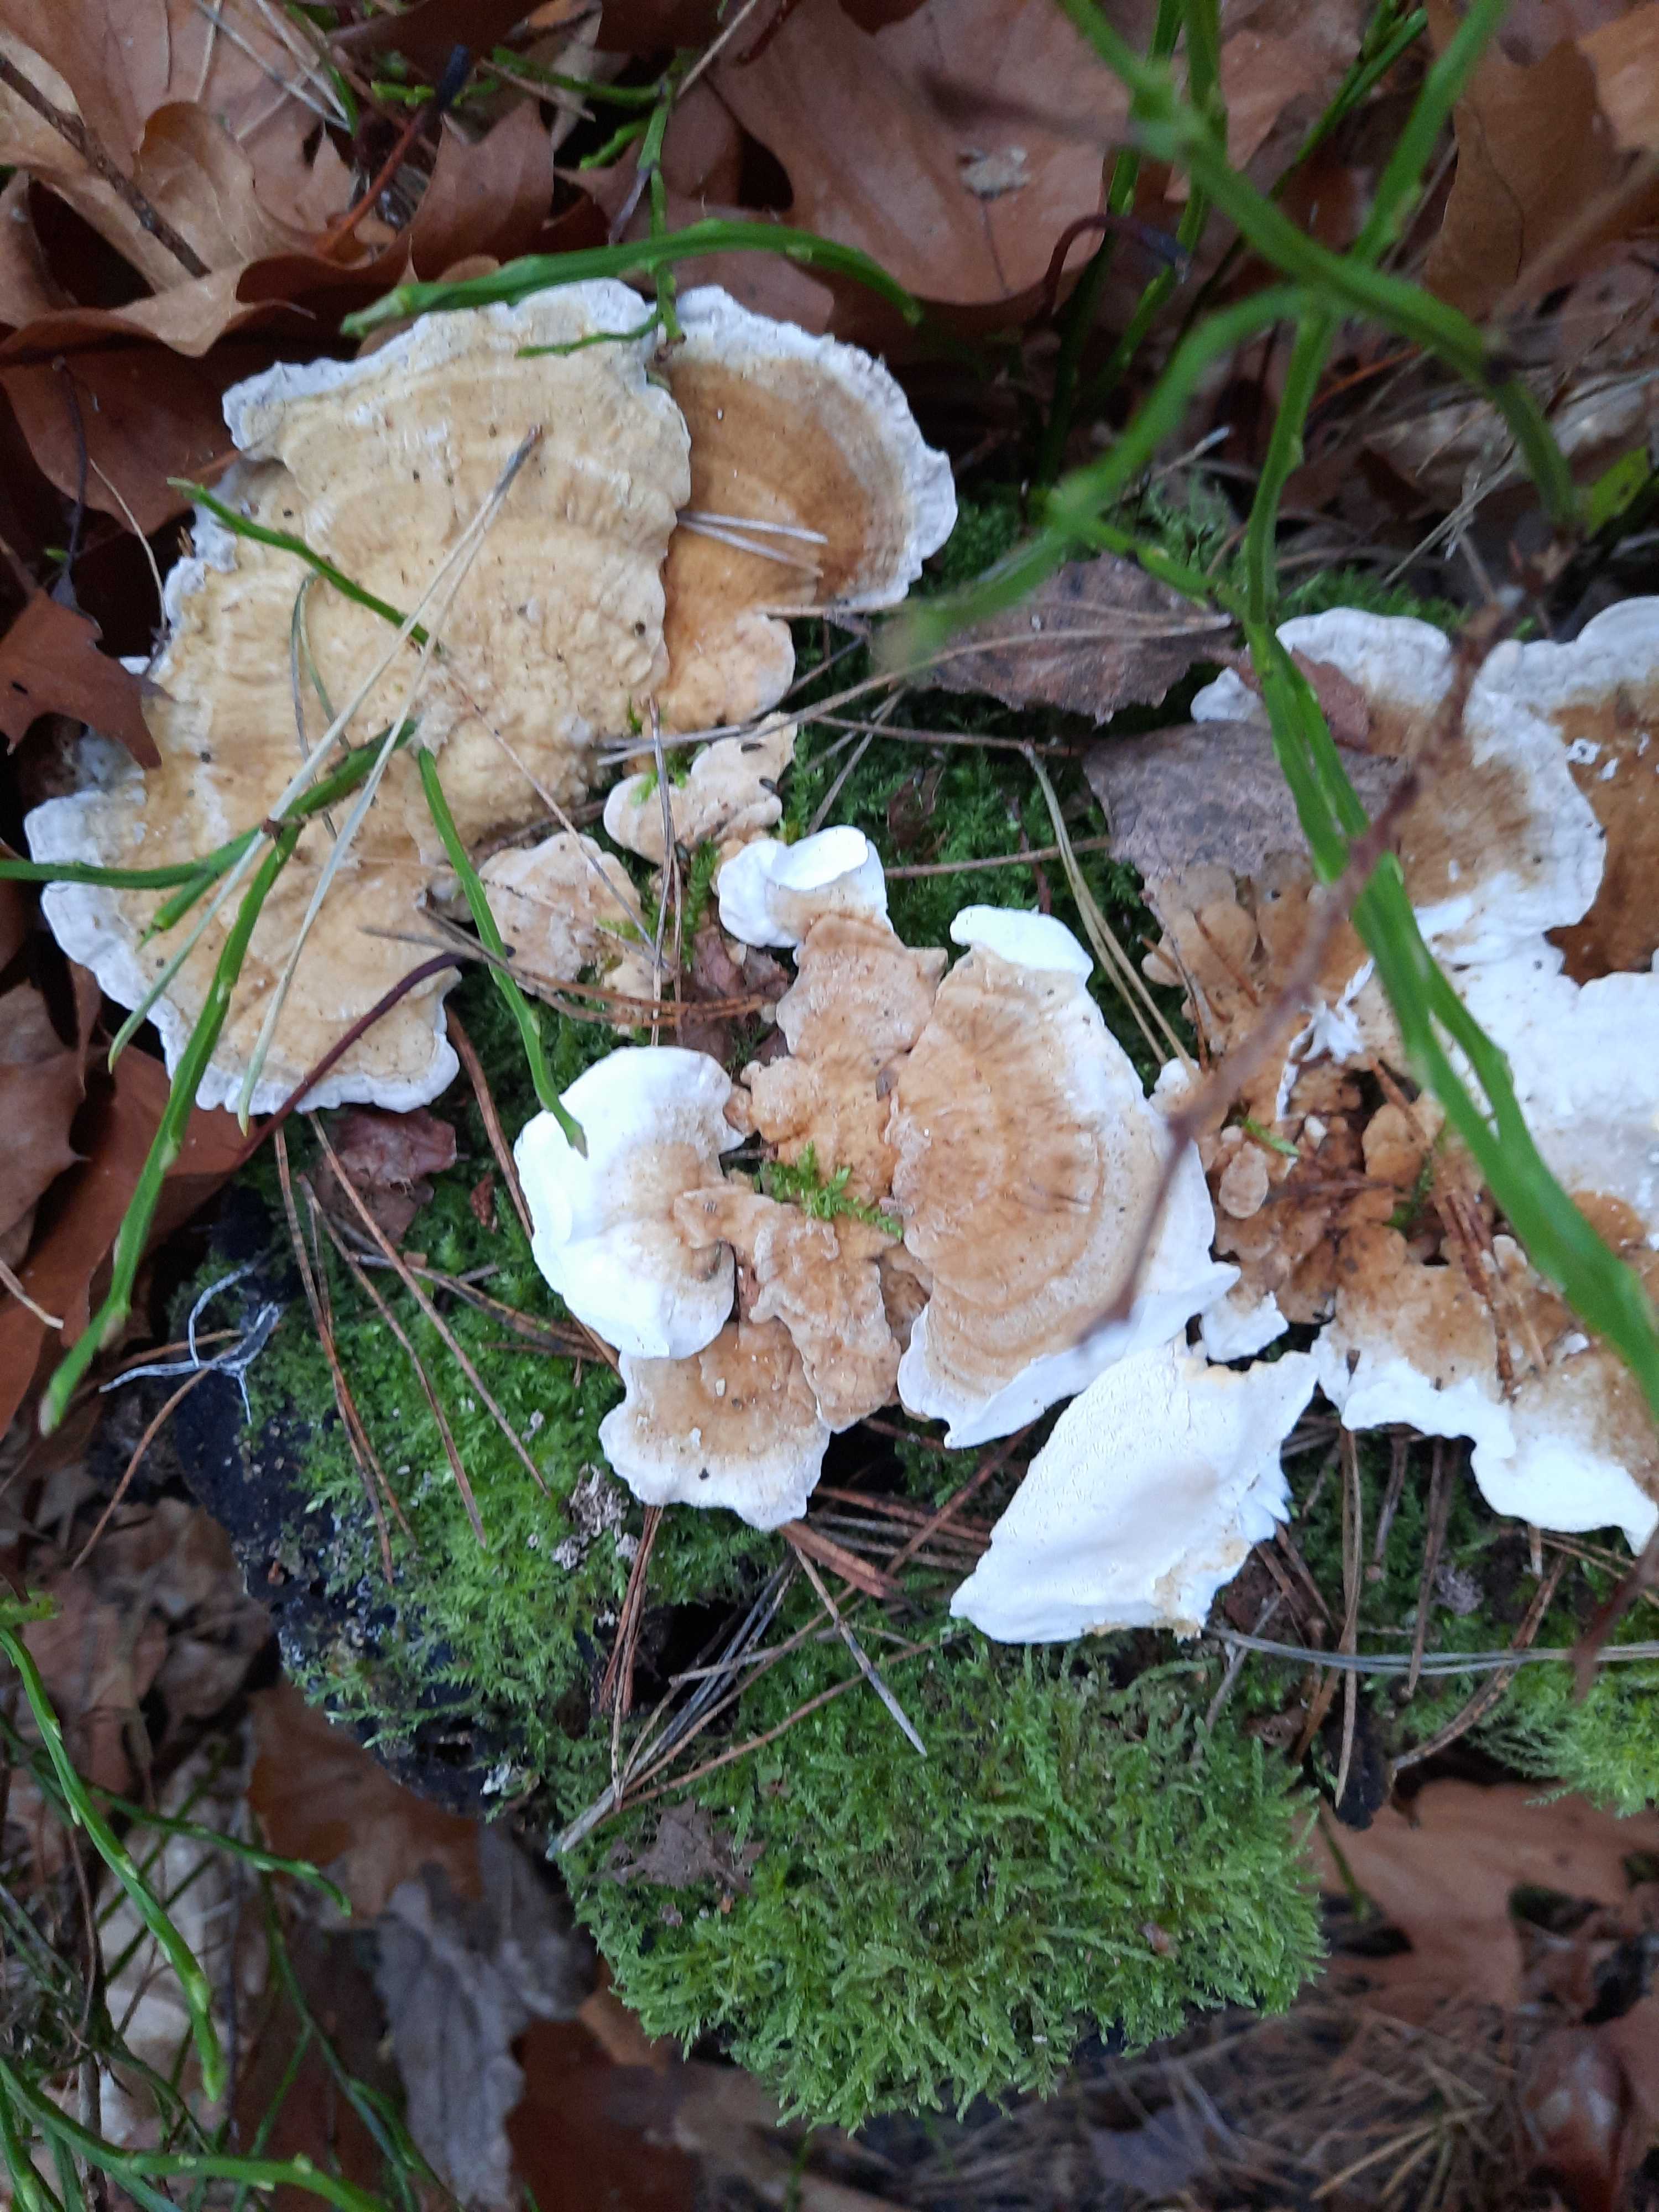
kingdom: Fungi
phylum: Basidiomycota
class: Agaricomycetes
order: Polyporales
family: Polyporaceae
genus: Trametes
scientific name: Trametes ochracea
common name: bæltet læderporesvamp
